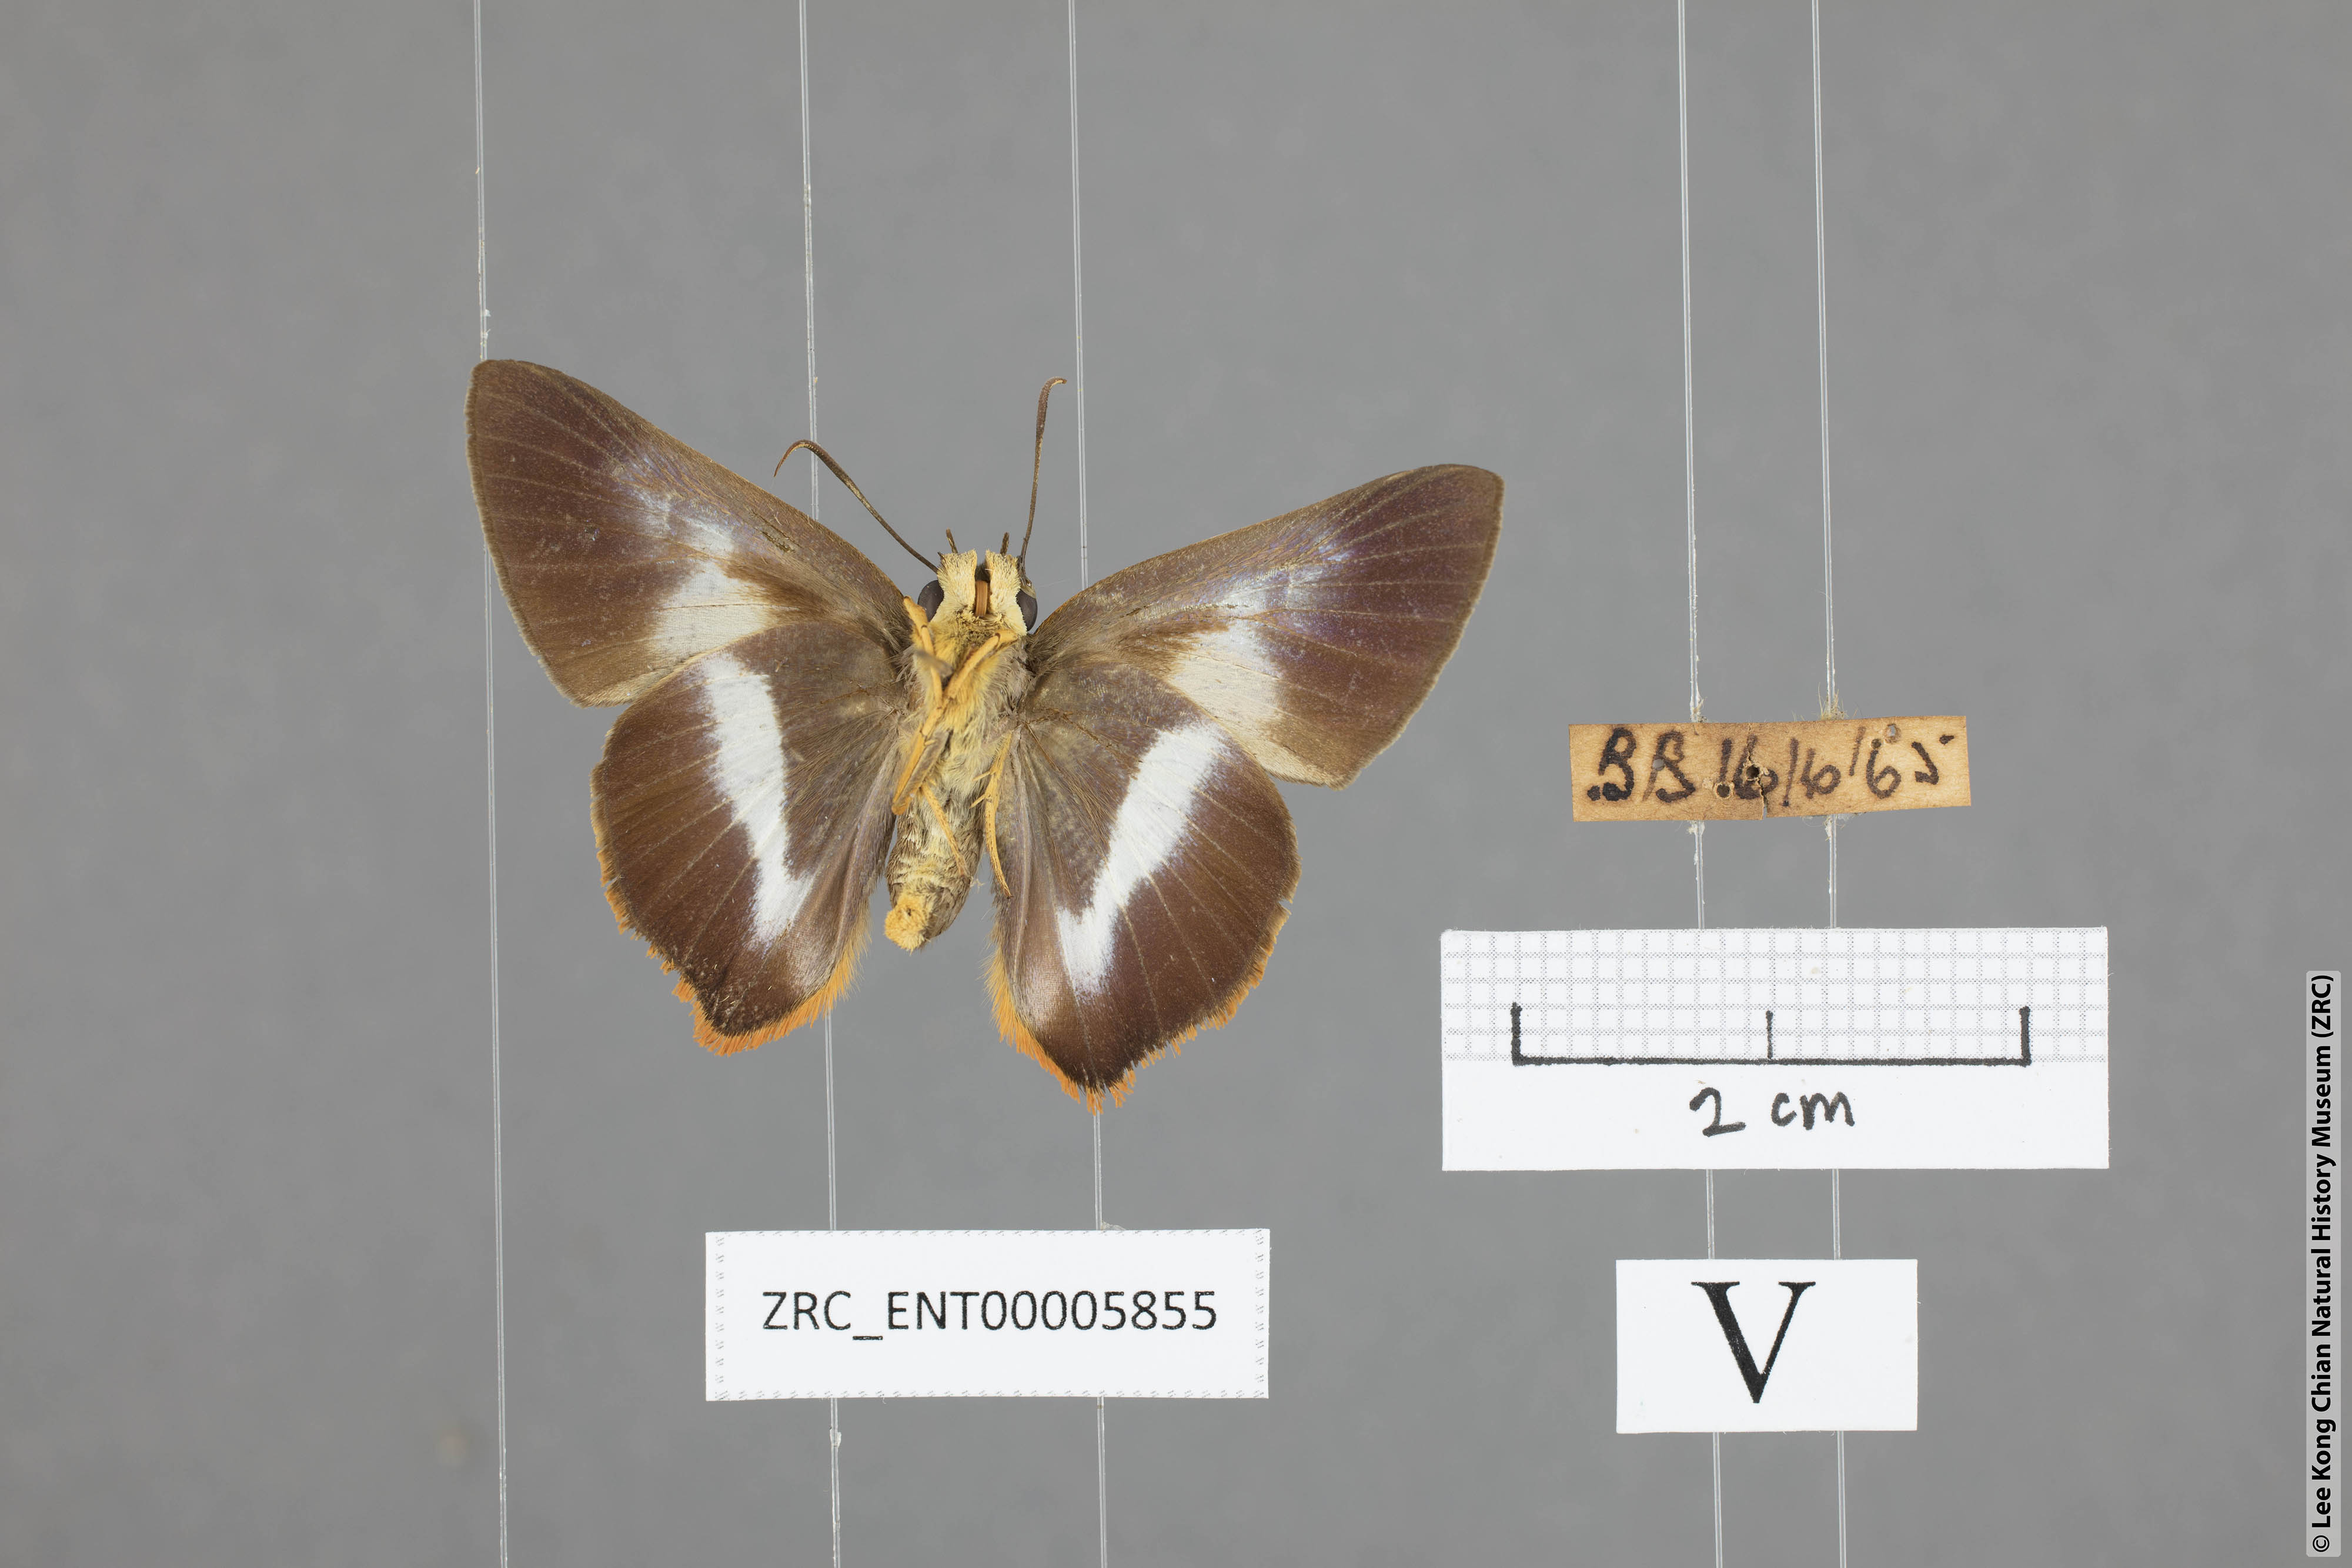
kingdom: Animalia
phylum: Arthropoda
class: Insecta
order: Lepidoptera
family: Hesperiidae
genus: Bibasis
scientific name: Bibasis sena
